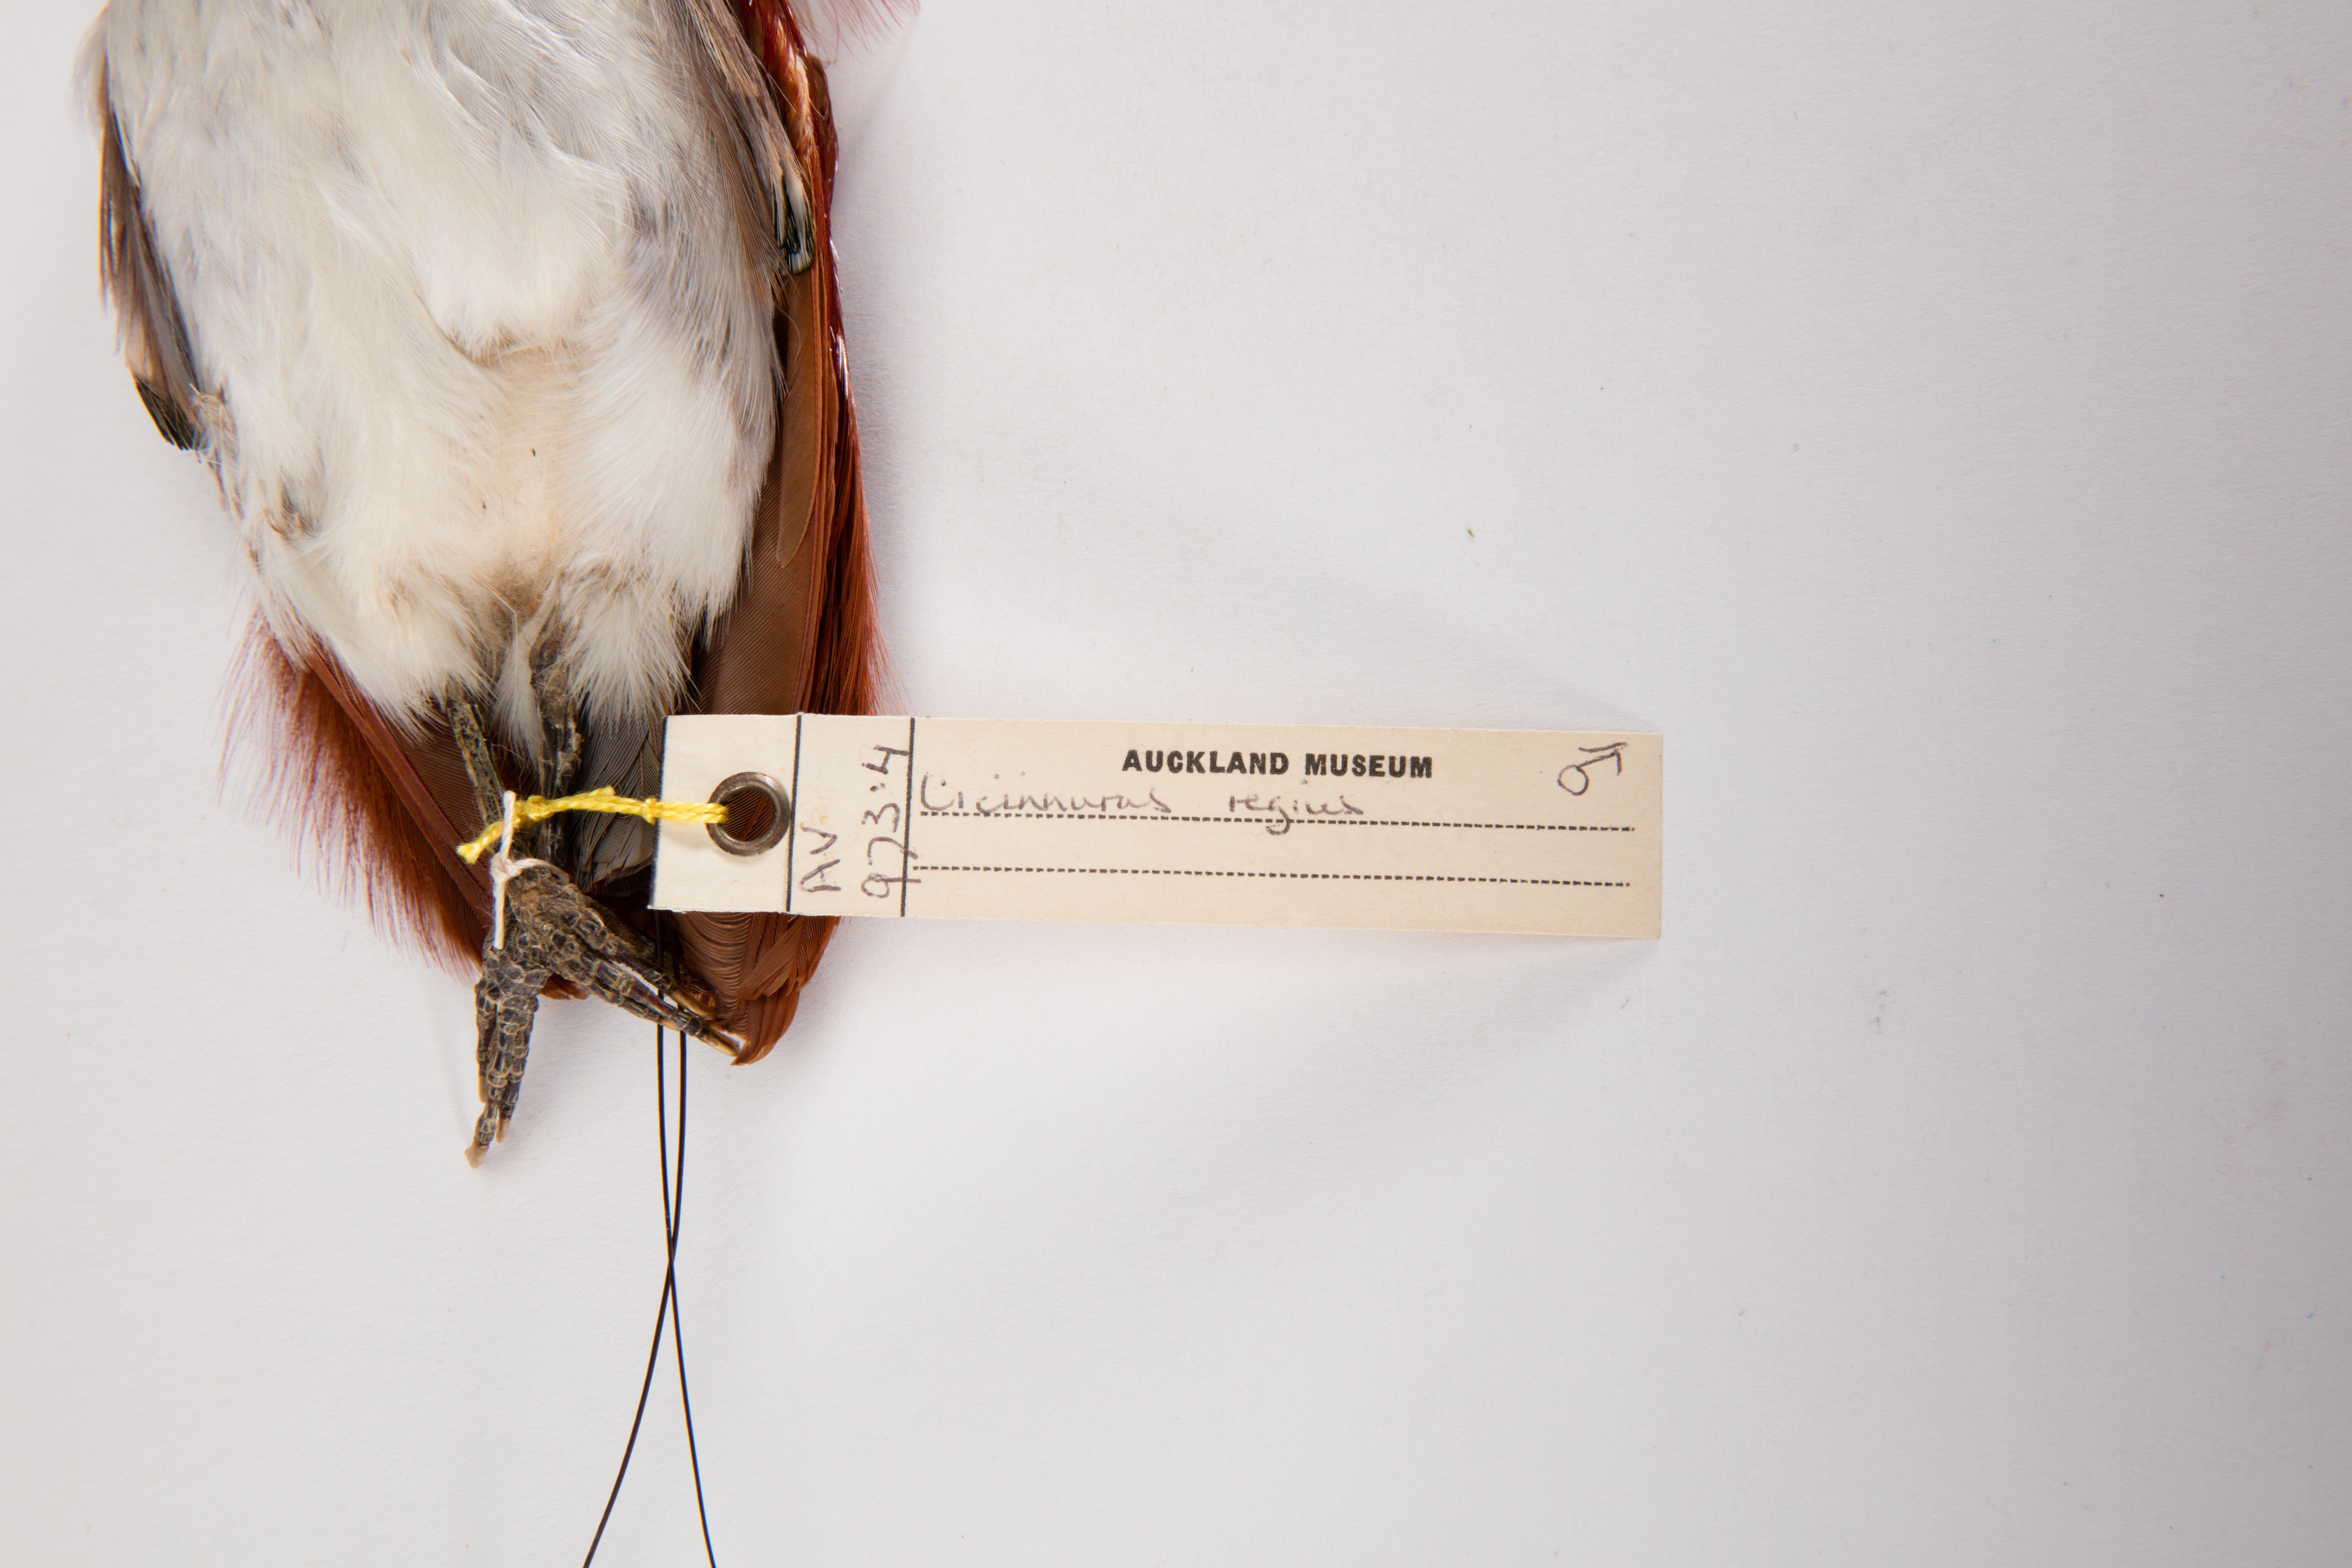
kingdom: Animalia
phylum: Chordata
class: Aves
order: Passeriformes
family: Paradisaeidae
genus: Cicinnurus
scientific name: Cicinnurus regius
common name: King bird-of-paradise
